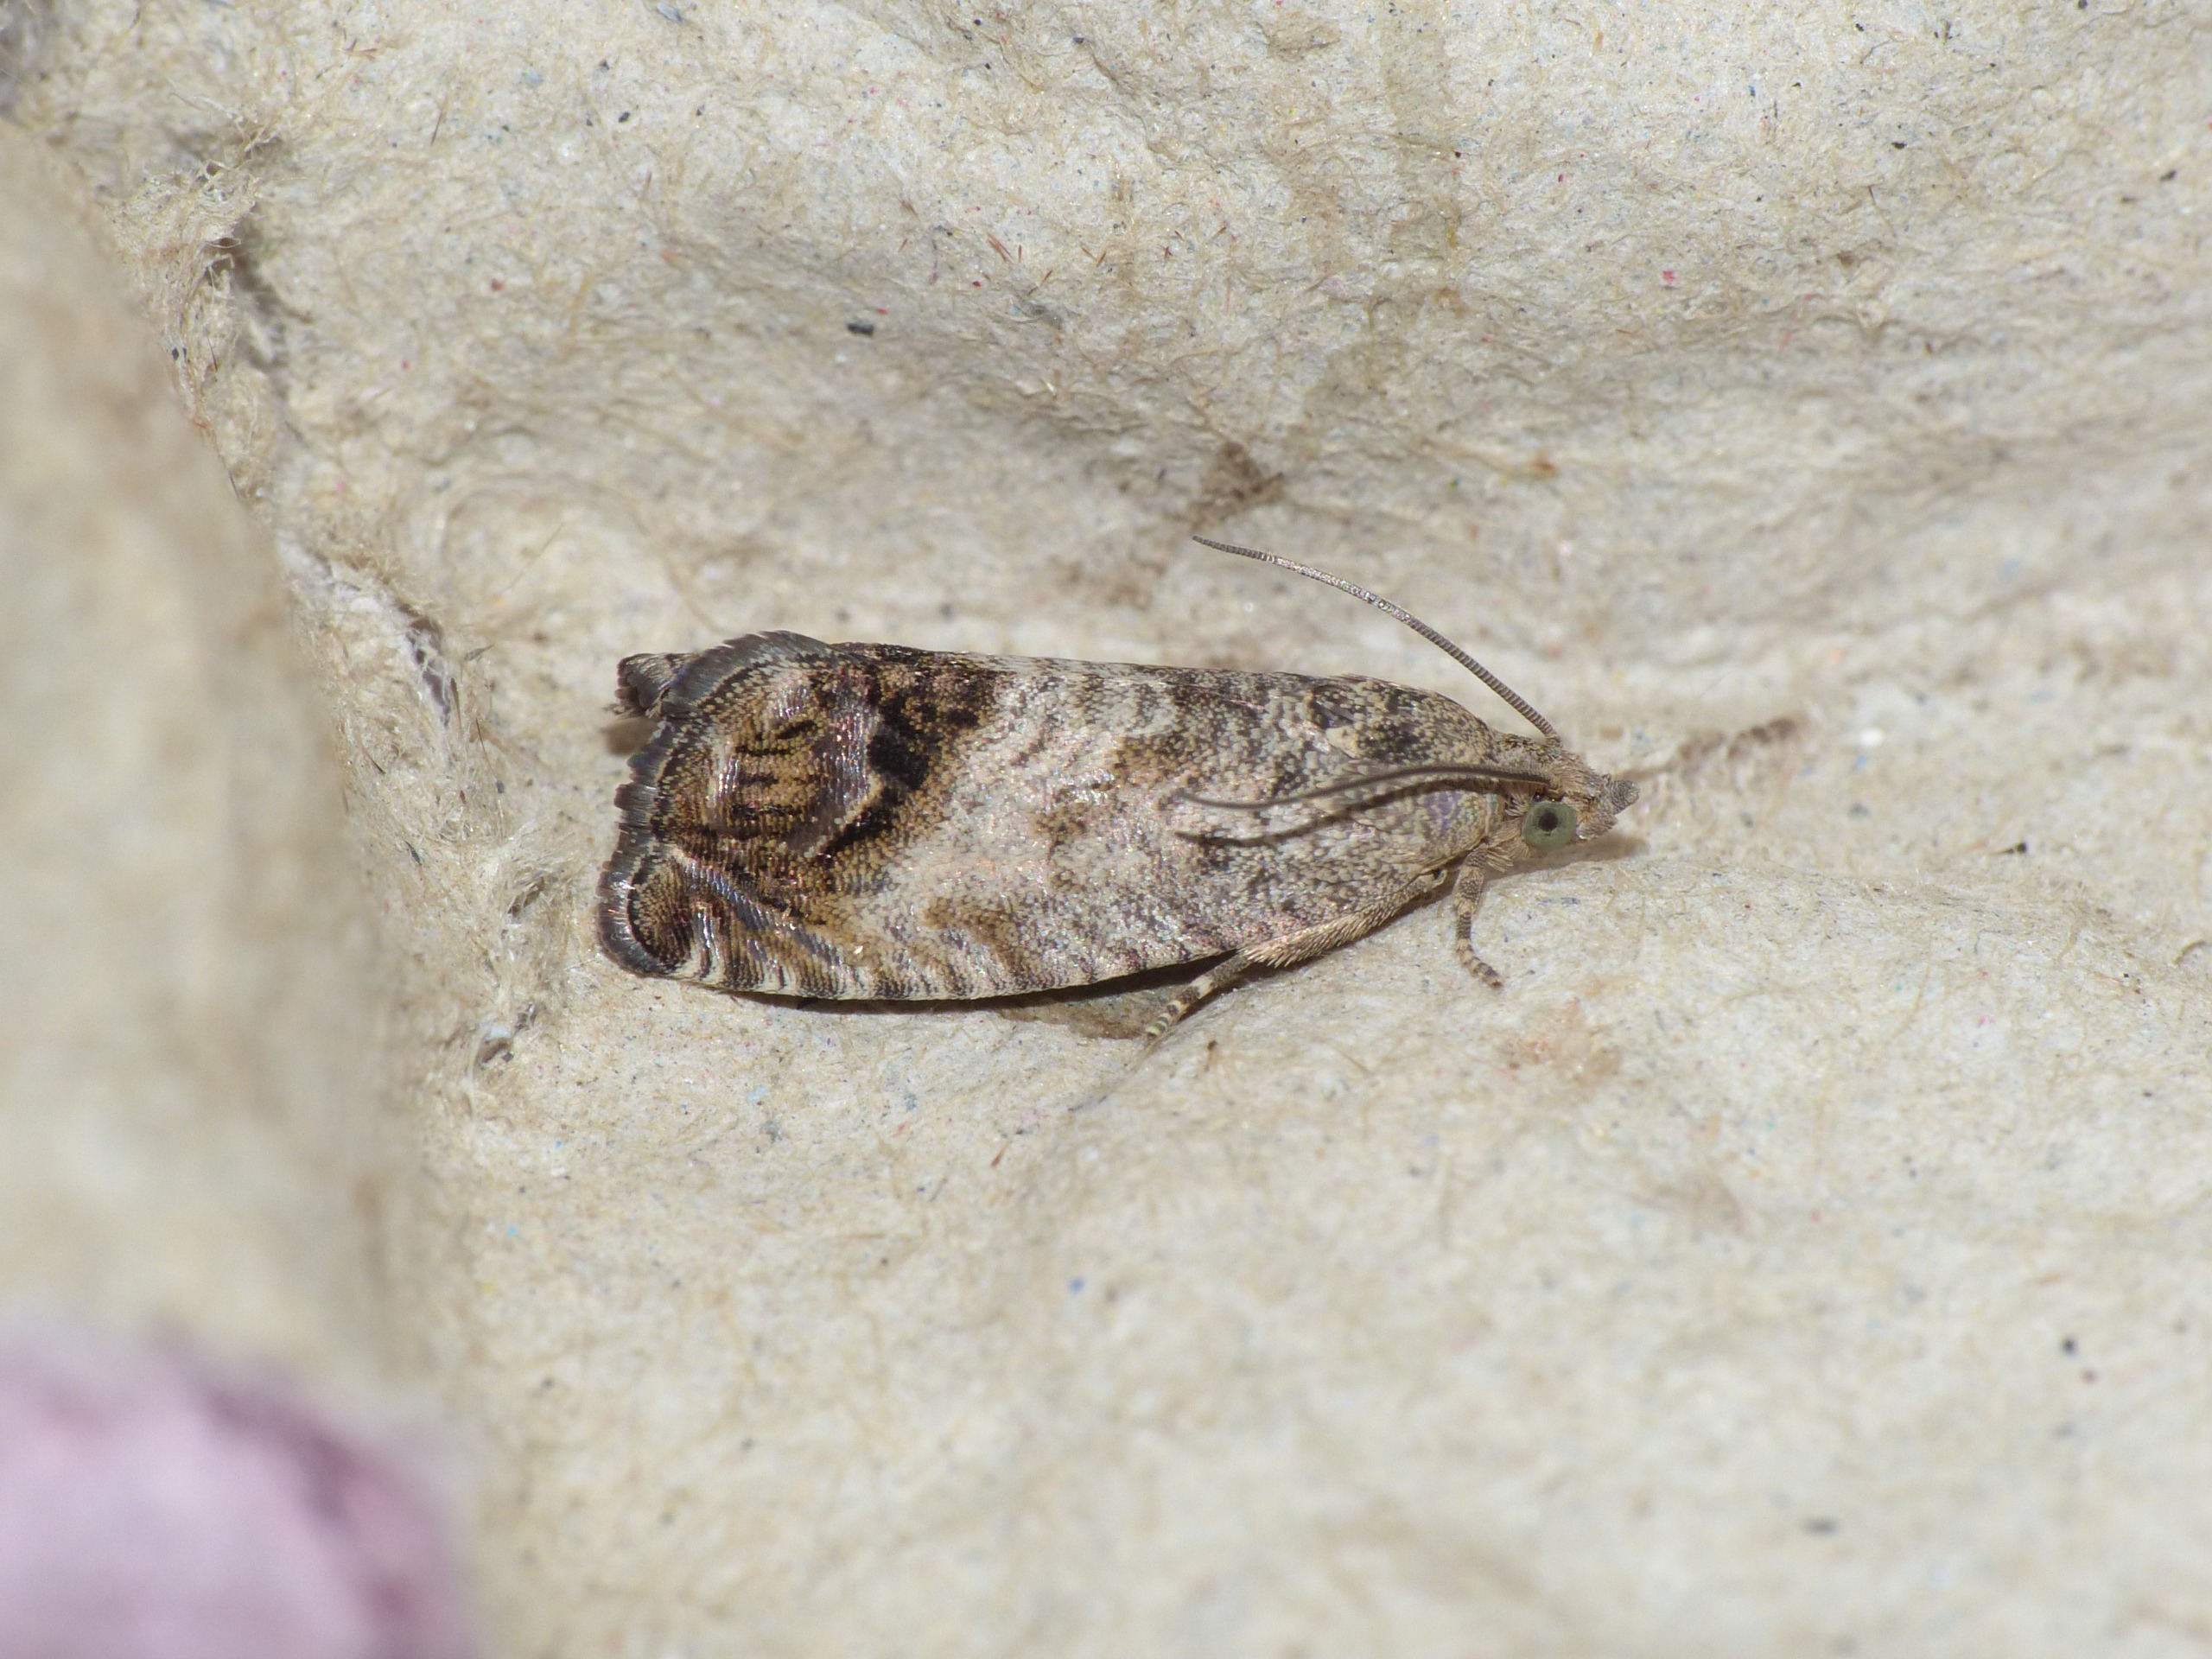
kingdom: Animalia
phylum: Arthropoda
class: Insecta
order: Lepidoptera
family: Tortricidae
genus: Cydia
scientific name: Cydia splendana
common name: Agernvikler
